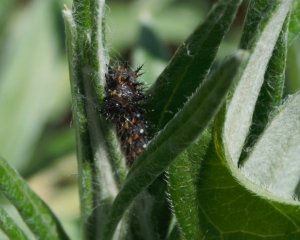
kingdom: Animalia
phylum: Arthropoda
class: Insecta
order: Lepidoptera
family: Nymphalidae
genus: Euphydryas
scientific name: Euphydryas phaeton
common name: Baltimore Checkerspot
